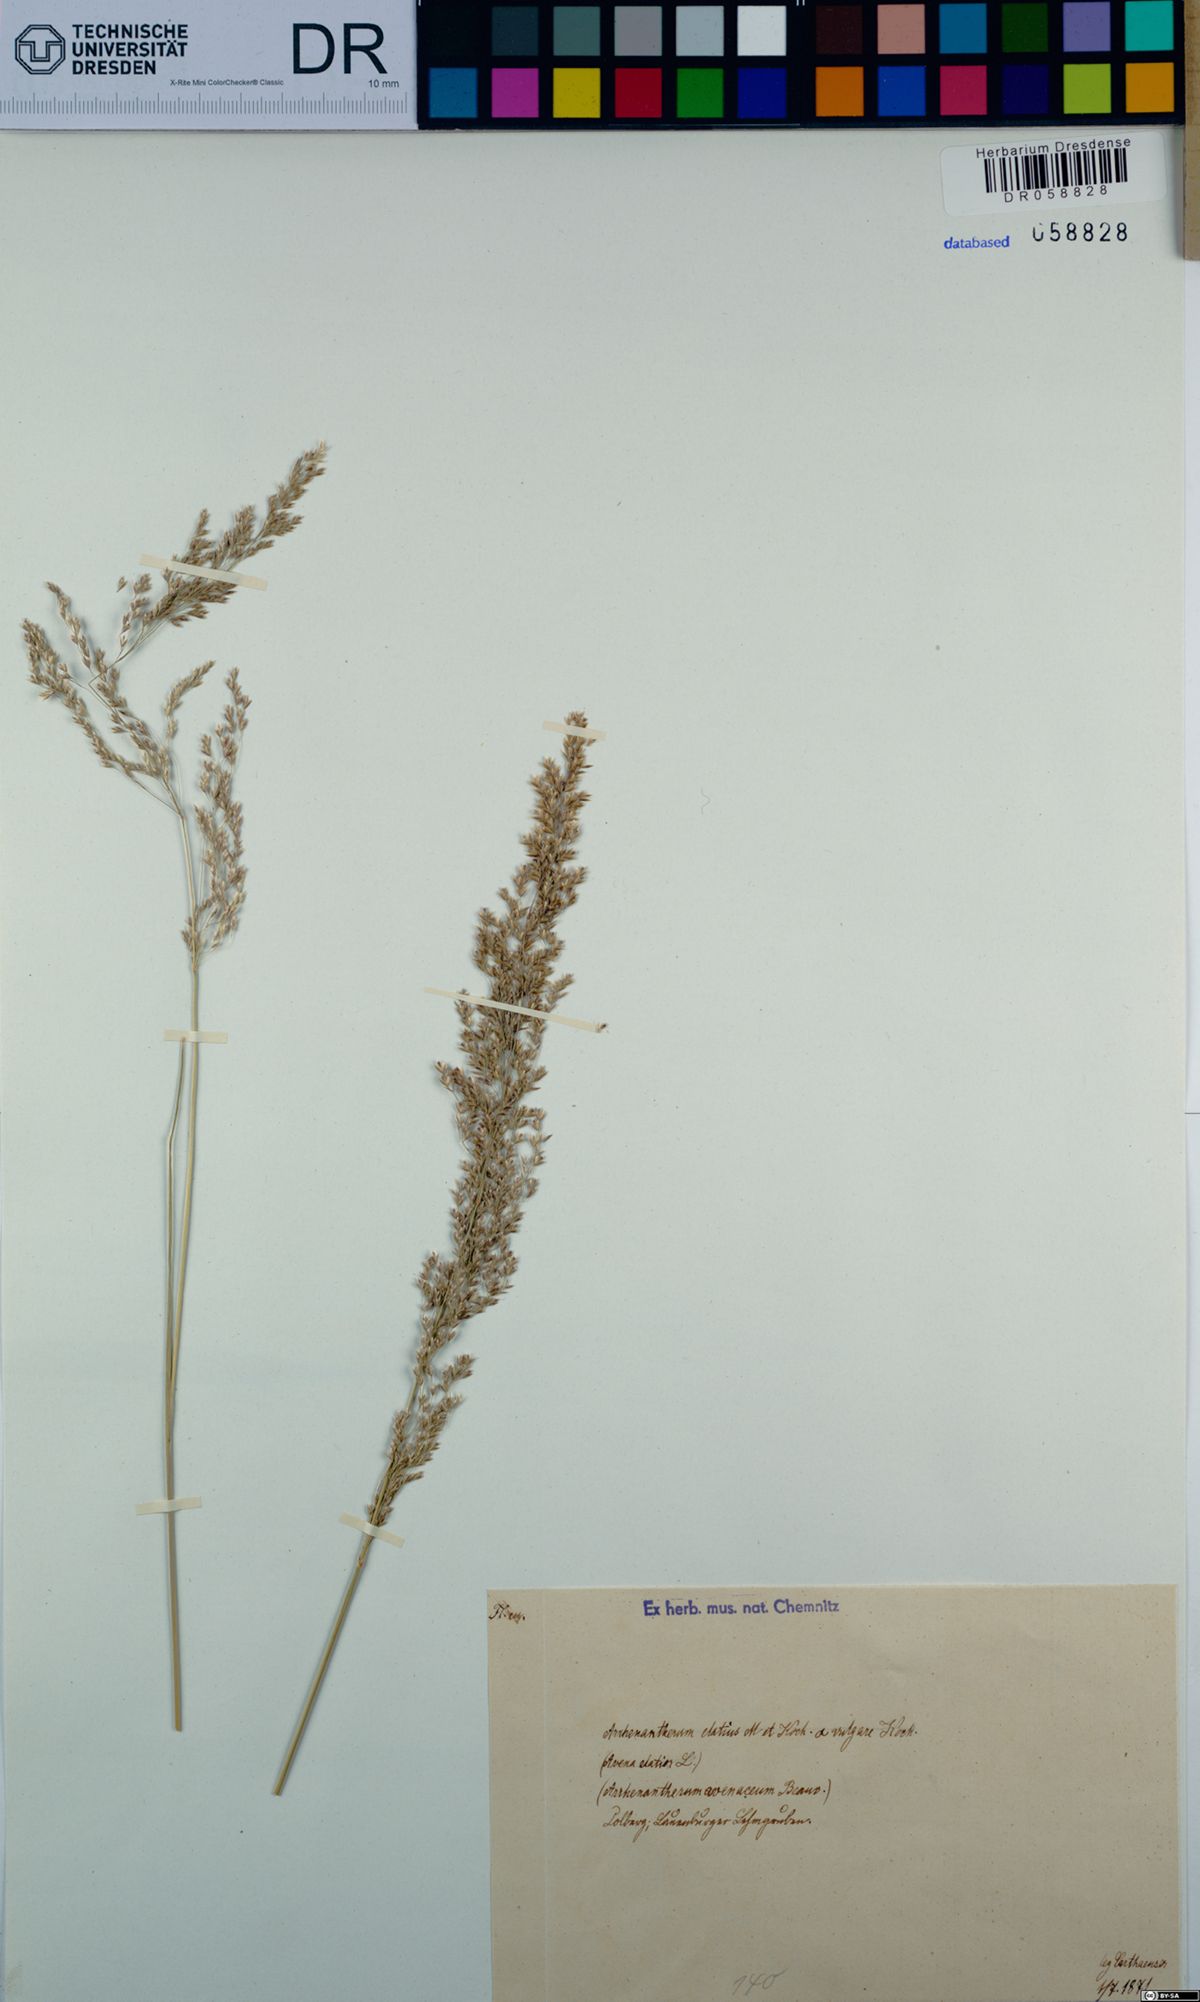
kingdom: Plantae
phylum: Tracheophyta
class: Liliopsida
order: Poales
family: Poaceae
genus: Arrhenatherum
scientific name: Arrhenatherum elatius
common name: Tall oatgrass
